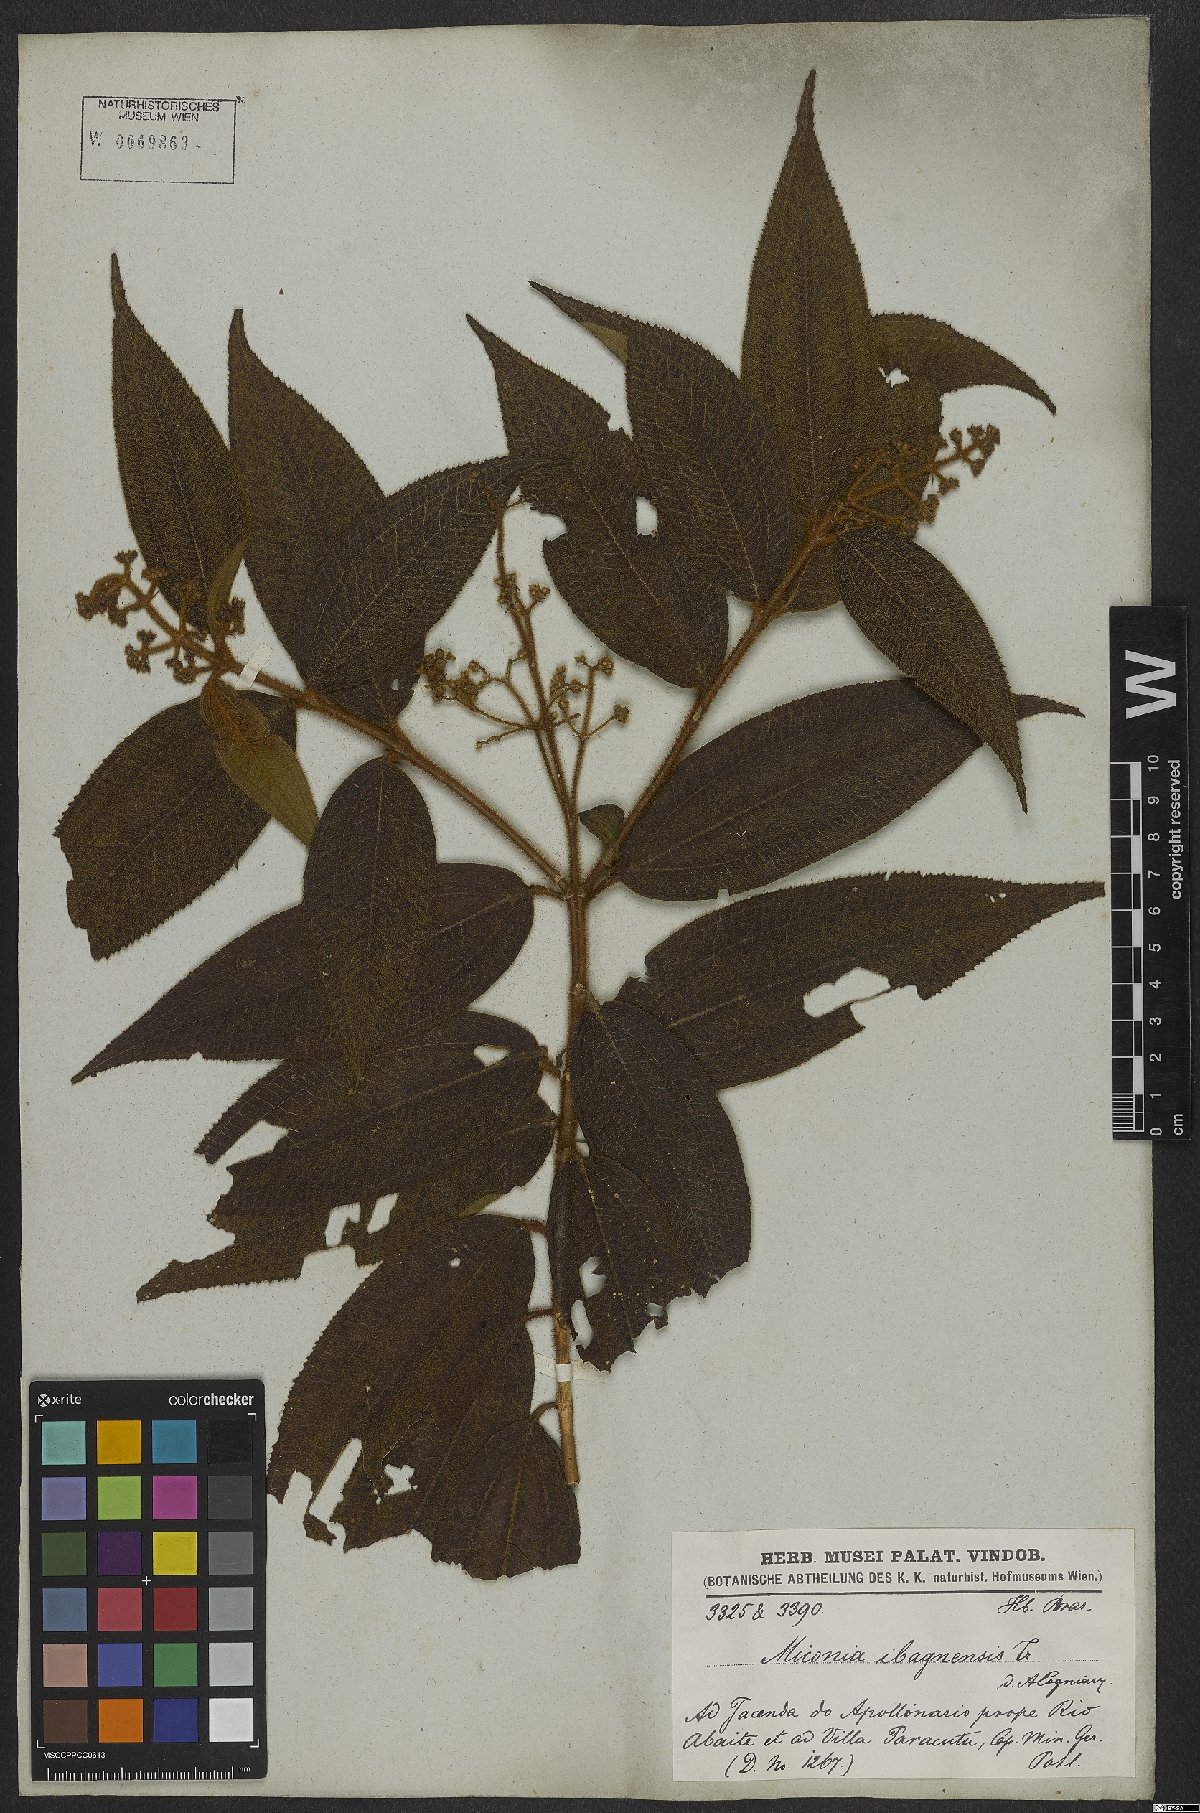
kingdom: Plantae
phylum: Tracheophyta
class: Magnoliopsida
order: Myrtales
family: Melastomataceae
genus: Miconia
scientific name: Miconia ibaguensis
